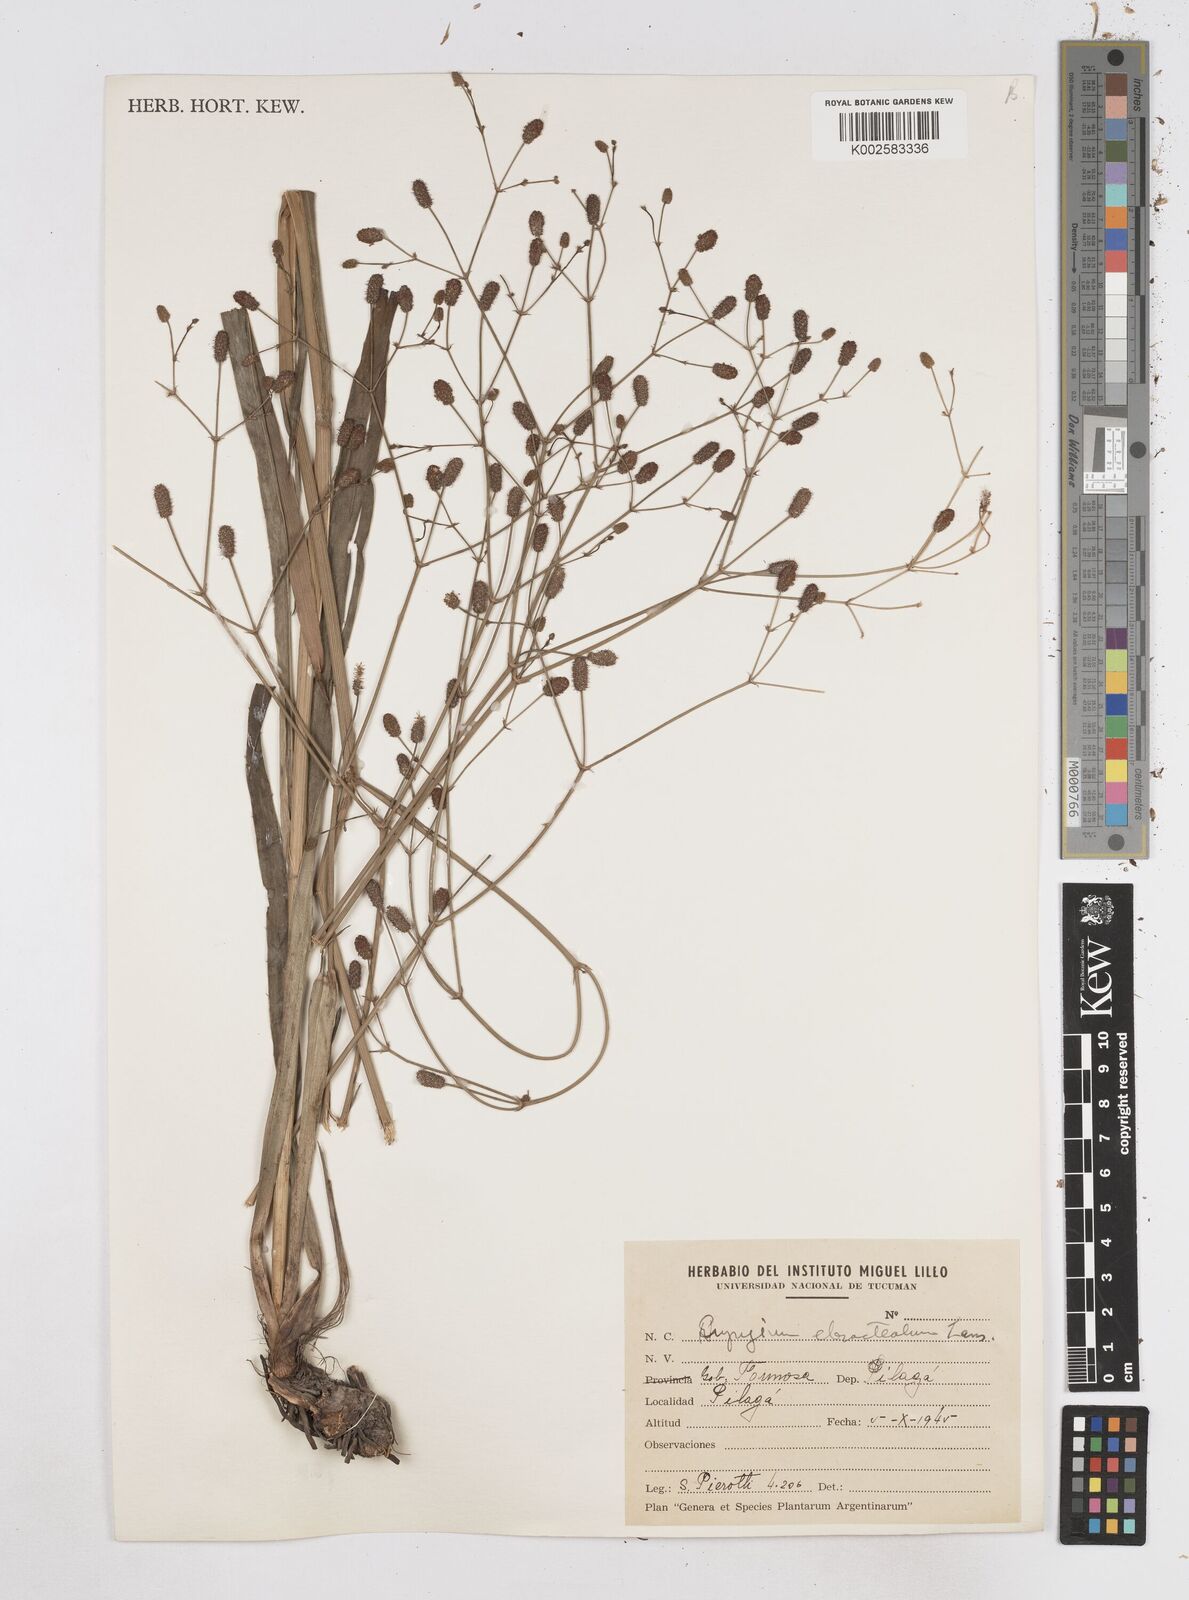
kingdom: Plantae
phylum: Tracheophyta
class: Magnoliopsida
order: Apiales
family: Apiaceae
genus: Eryngium
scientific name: Eryngium ebracteatum
